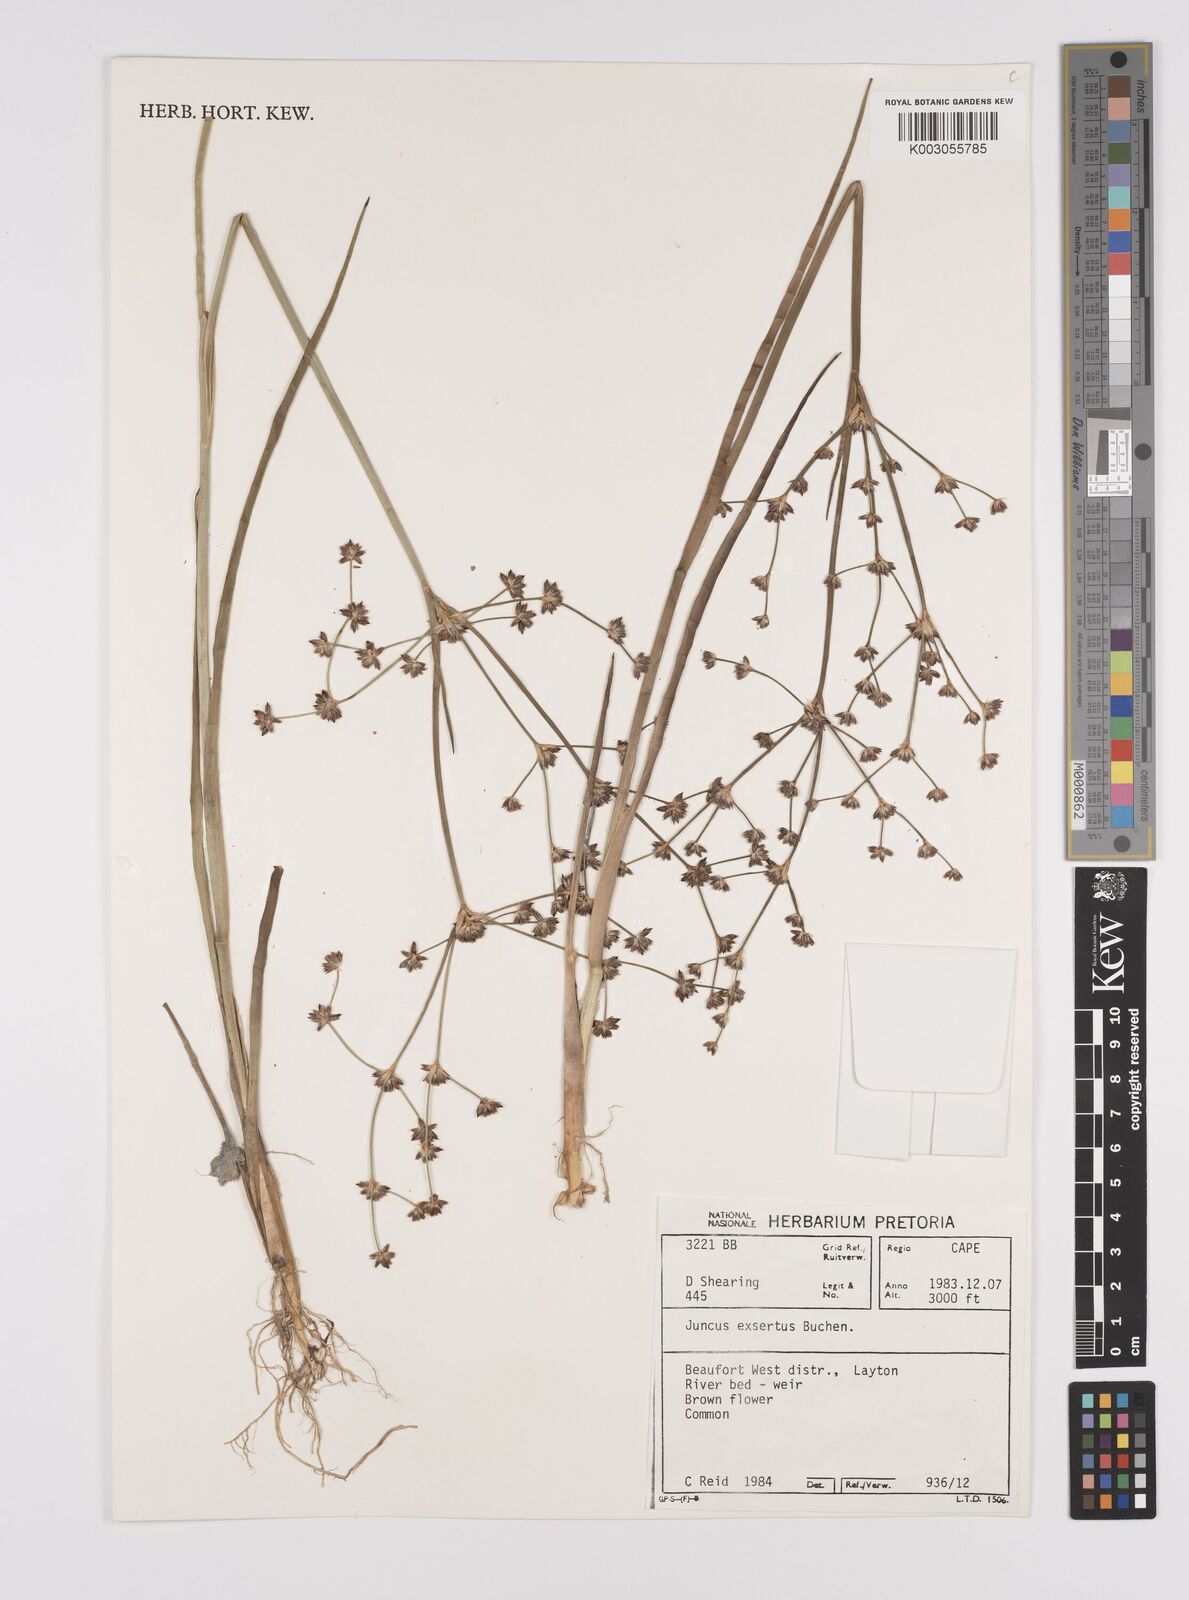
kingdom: Plantae
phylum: Tracheophyta
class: Liliopsida
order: Poales
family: Juncaceae
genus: Juncus
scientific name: Juncus exsertus
